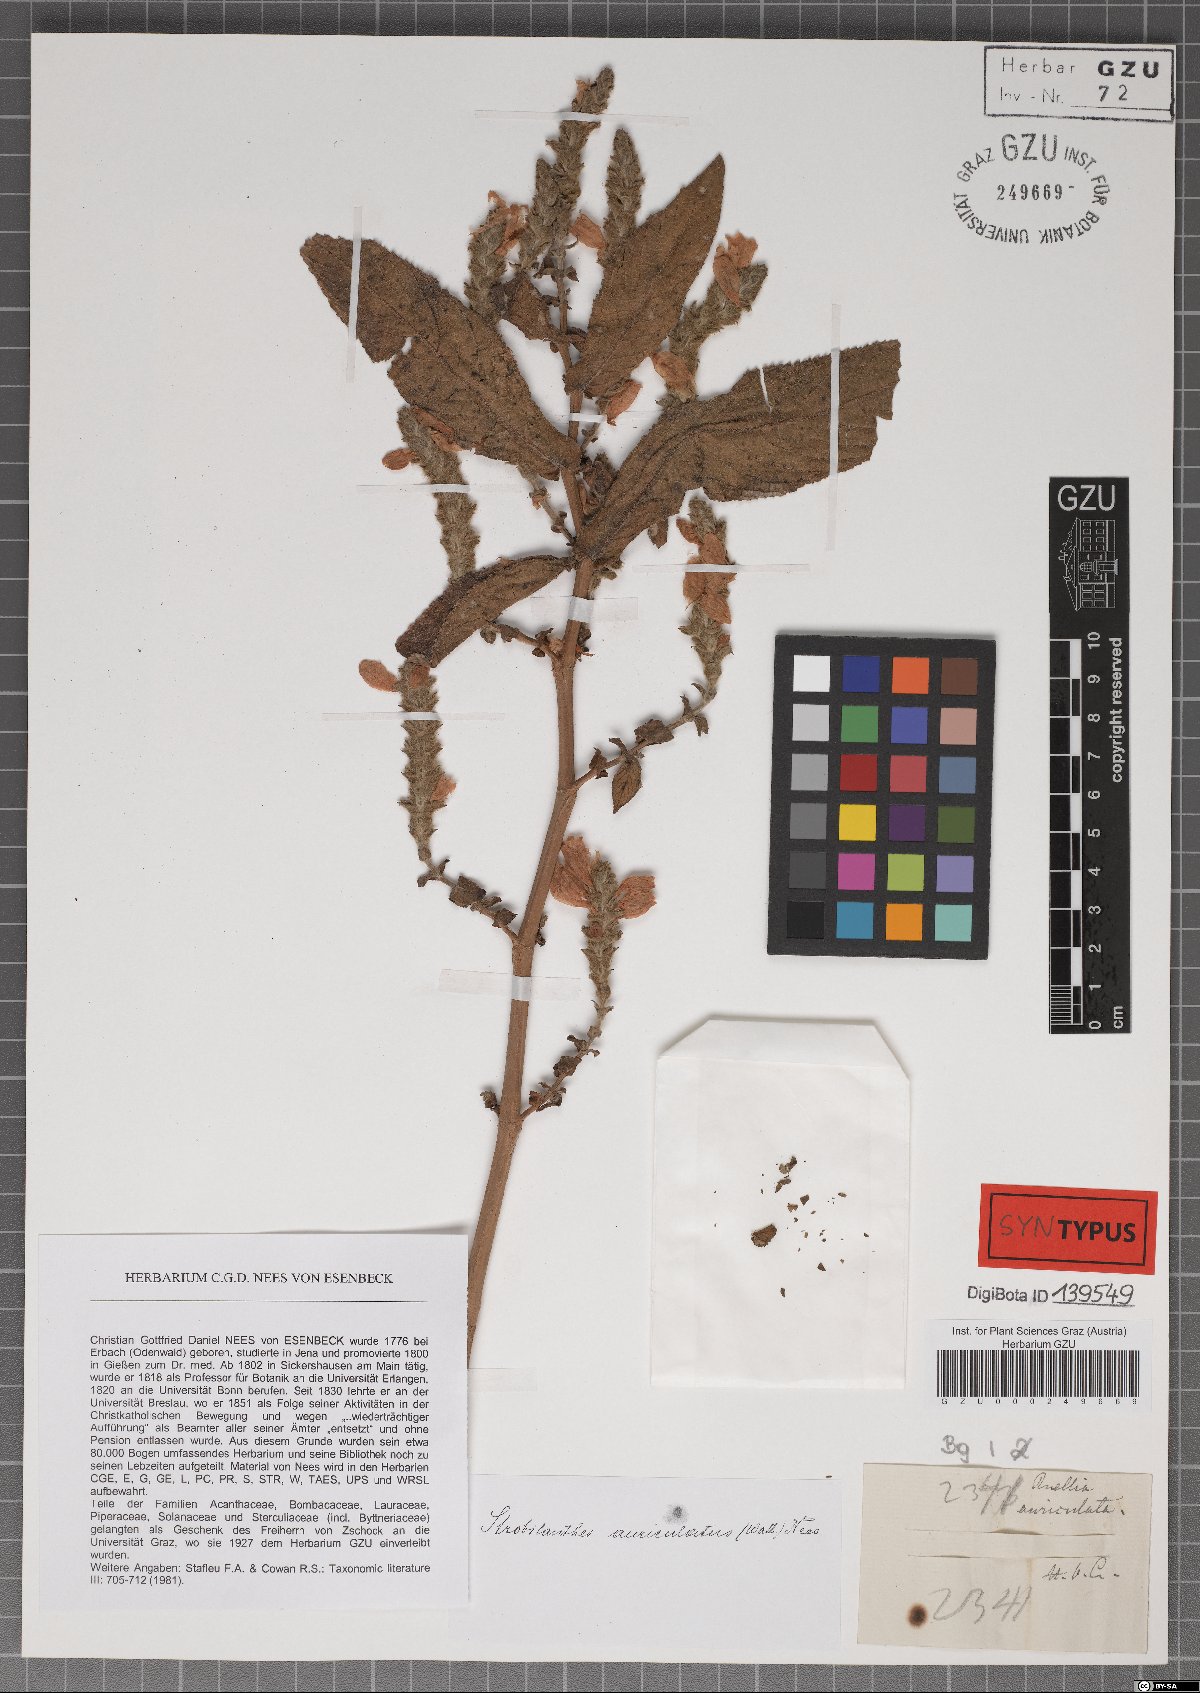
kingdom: Plantae
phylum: Tracheophyta
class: Magnoliopsida
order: Lamiales
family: Acanthaceae
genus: Strobilanthes
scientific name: Strobilanthes auriculata
